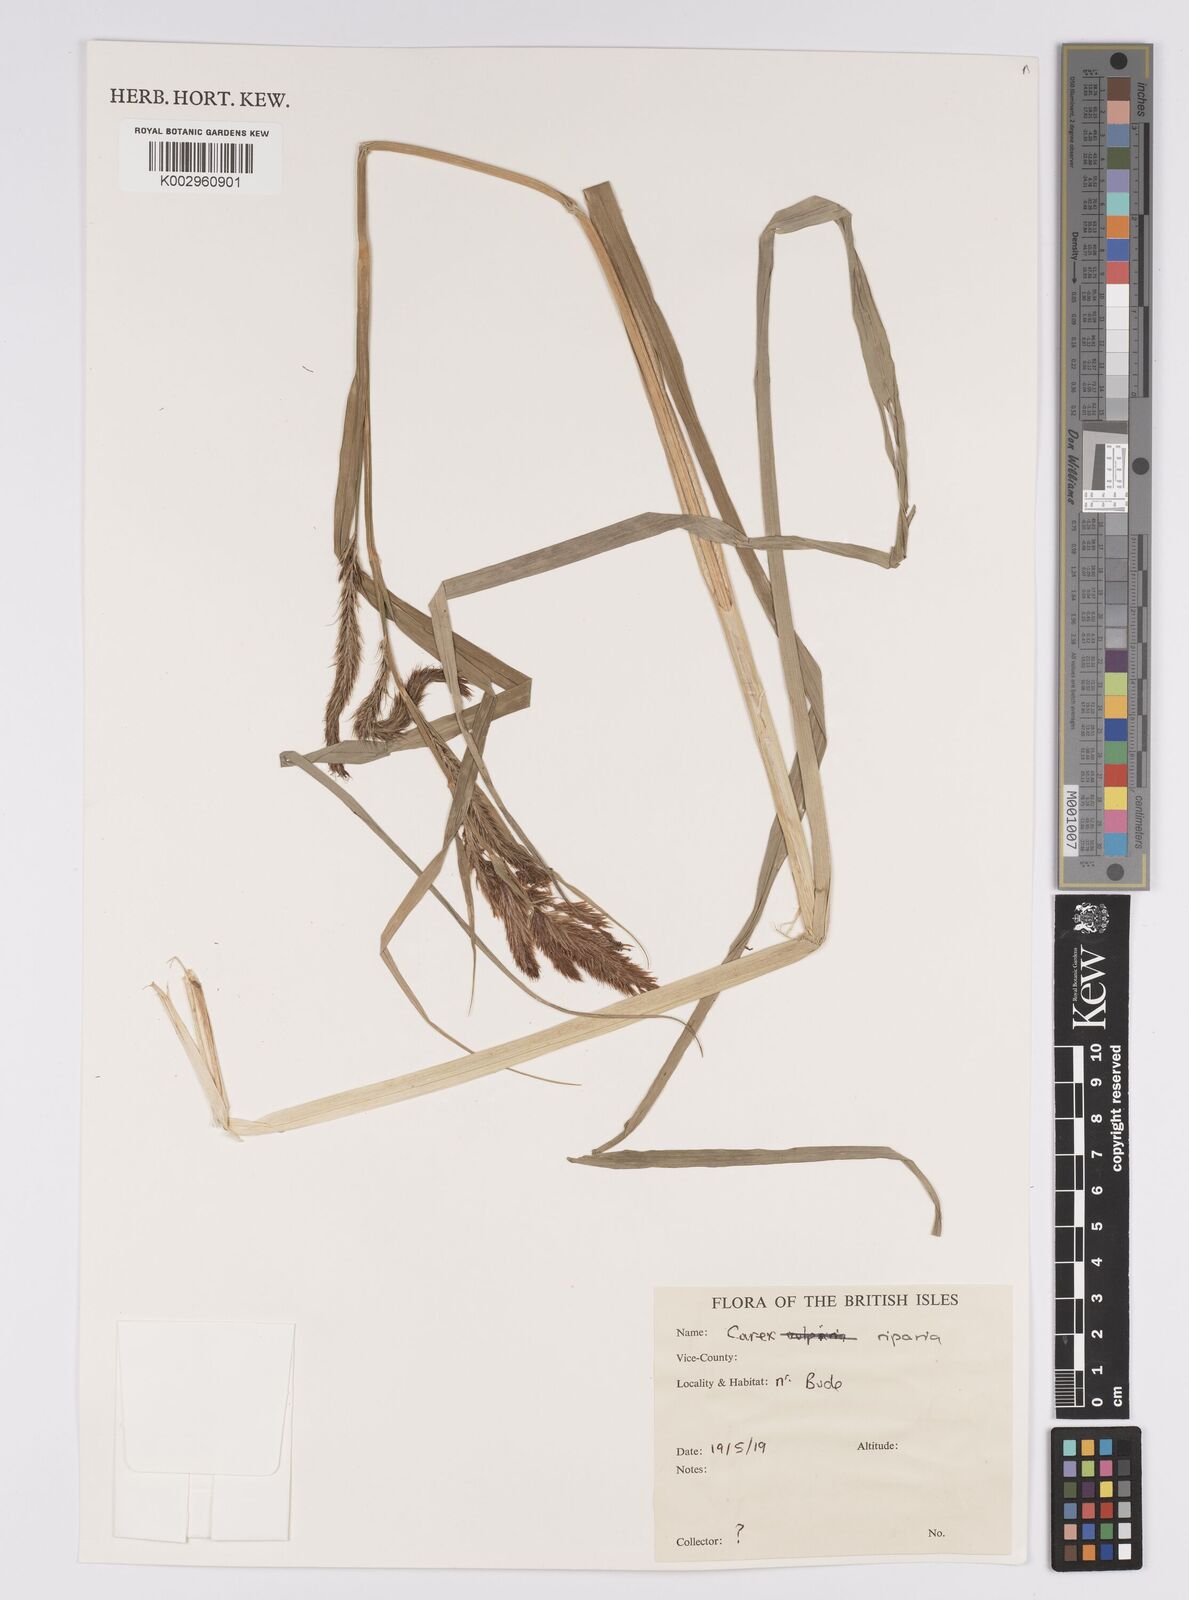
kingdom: Plantae
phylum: Tracheophyta
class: Liliopsida
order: Poales
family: Cyperaceae
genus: Carex
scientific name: Carex riparia
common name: Greater pond-sedge
